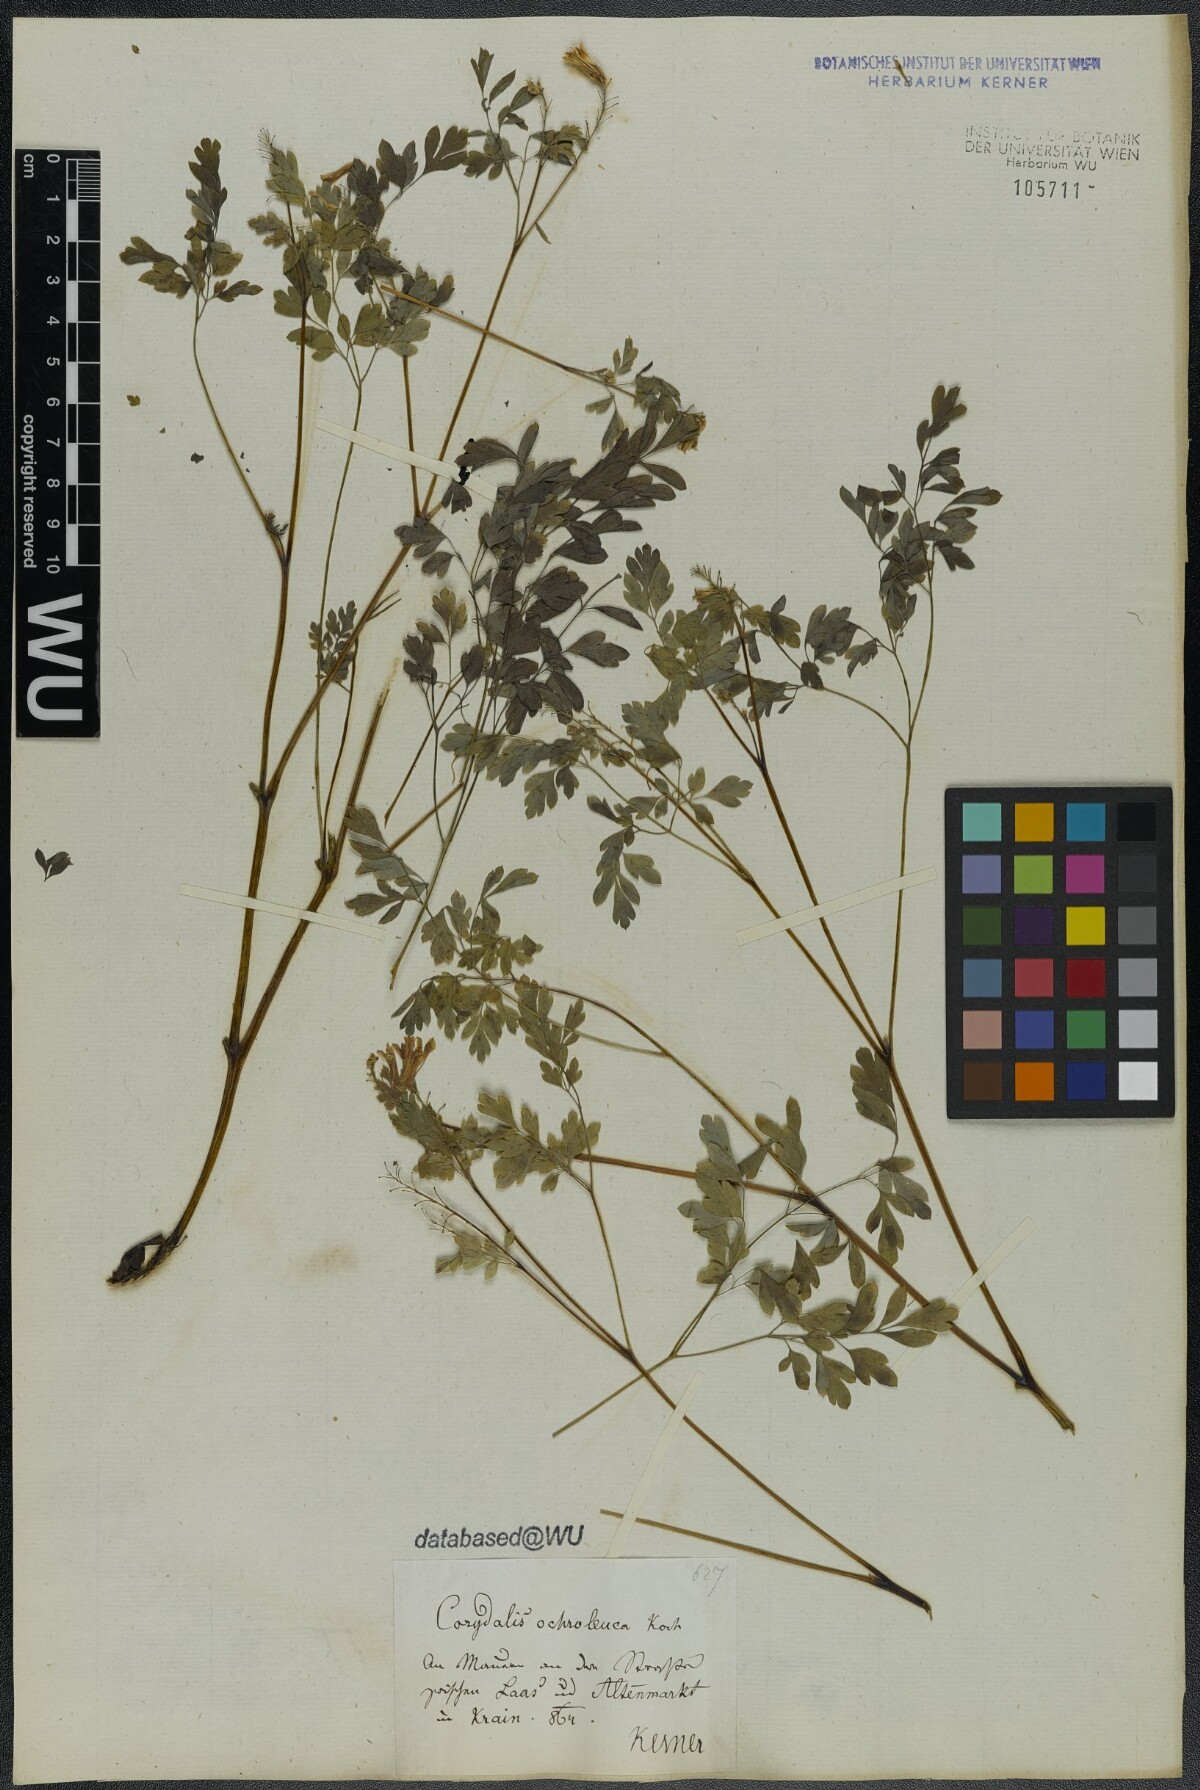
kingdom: Plantae
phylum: Tracheophyta
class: Magnoliopsida
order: Ranunculales
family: Papaveraceae
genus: Pseudofumaria
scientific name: Pseudofumaria alba
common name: Pale corydalis
